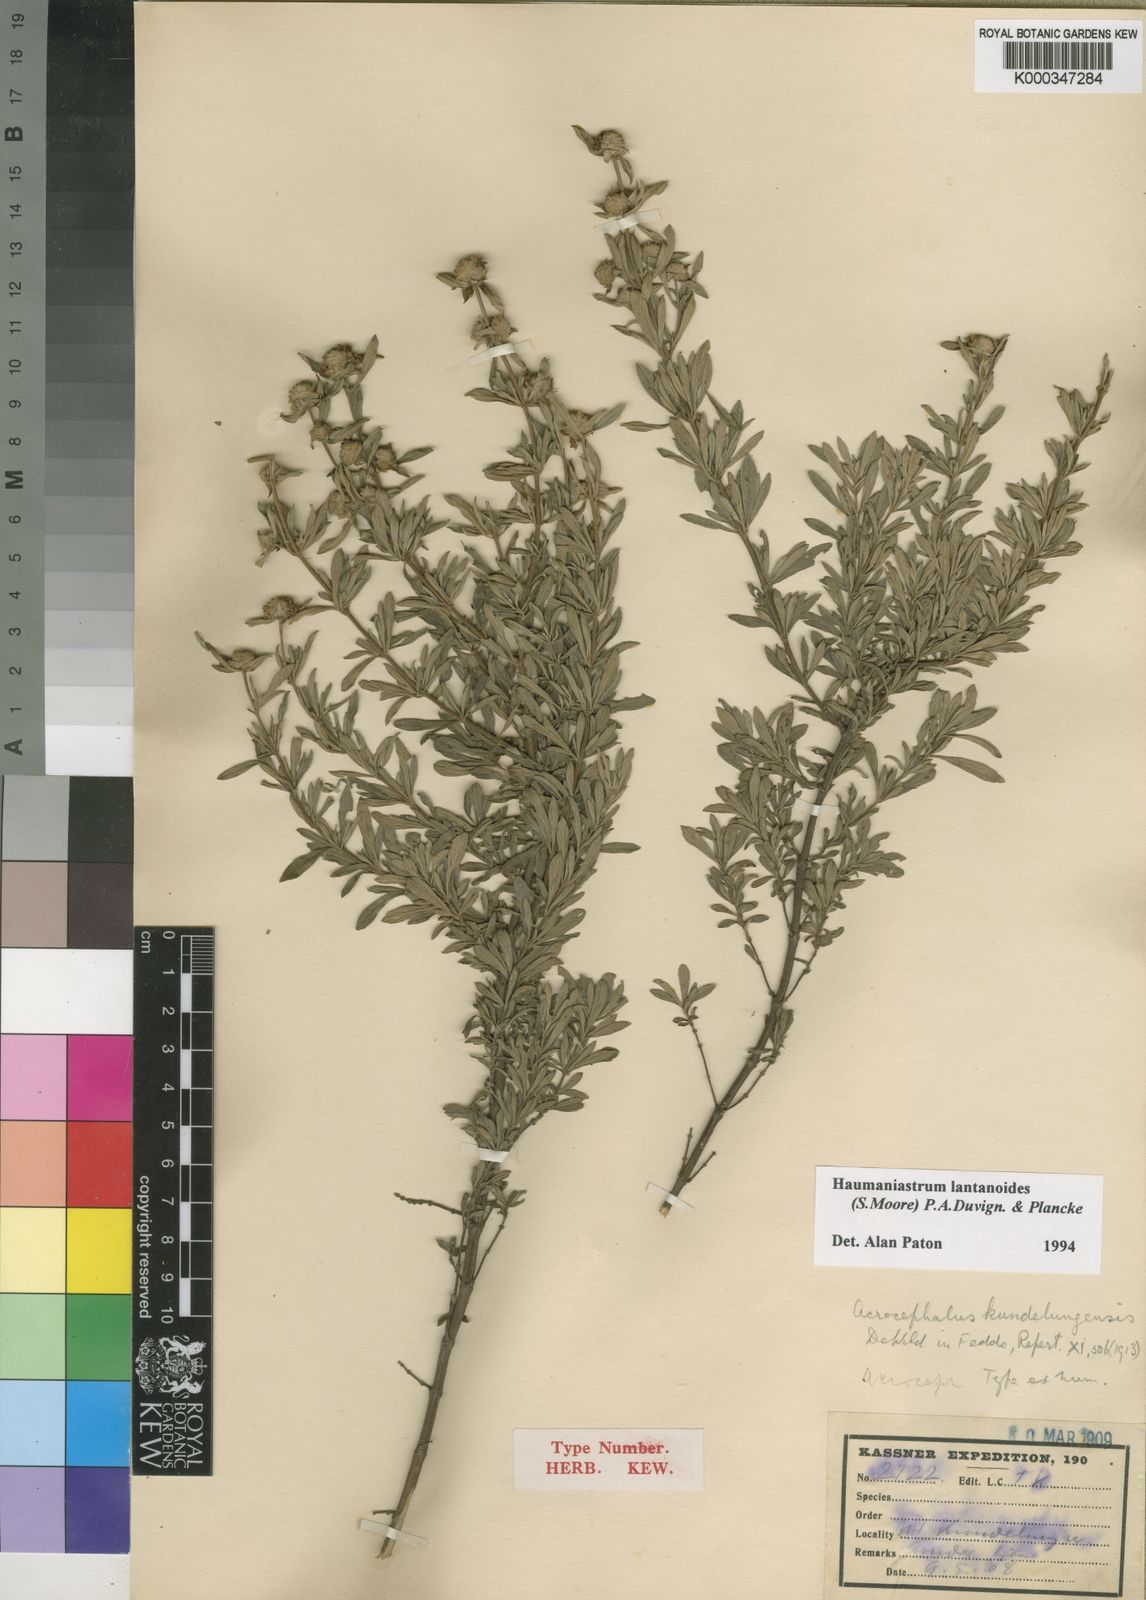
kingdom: Plantae
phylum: Tracheophyta
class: Magnoliopsida
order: Lamiales
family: Lamiaceae
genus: Haumaniastrum
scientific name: Haumaniastrum lantanoides
